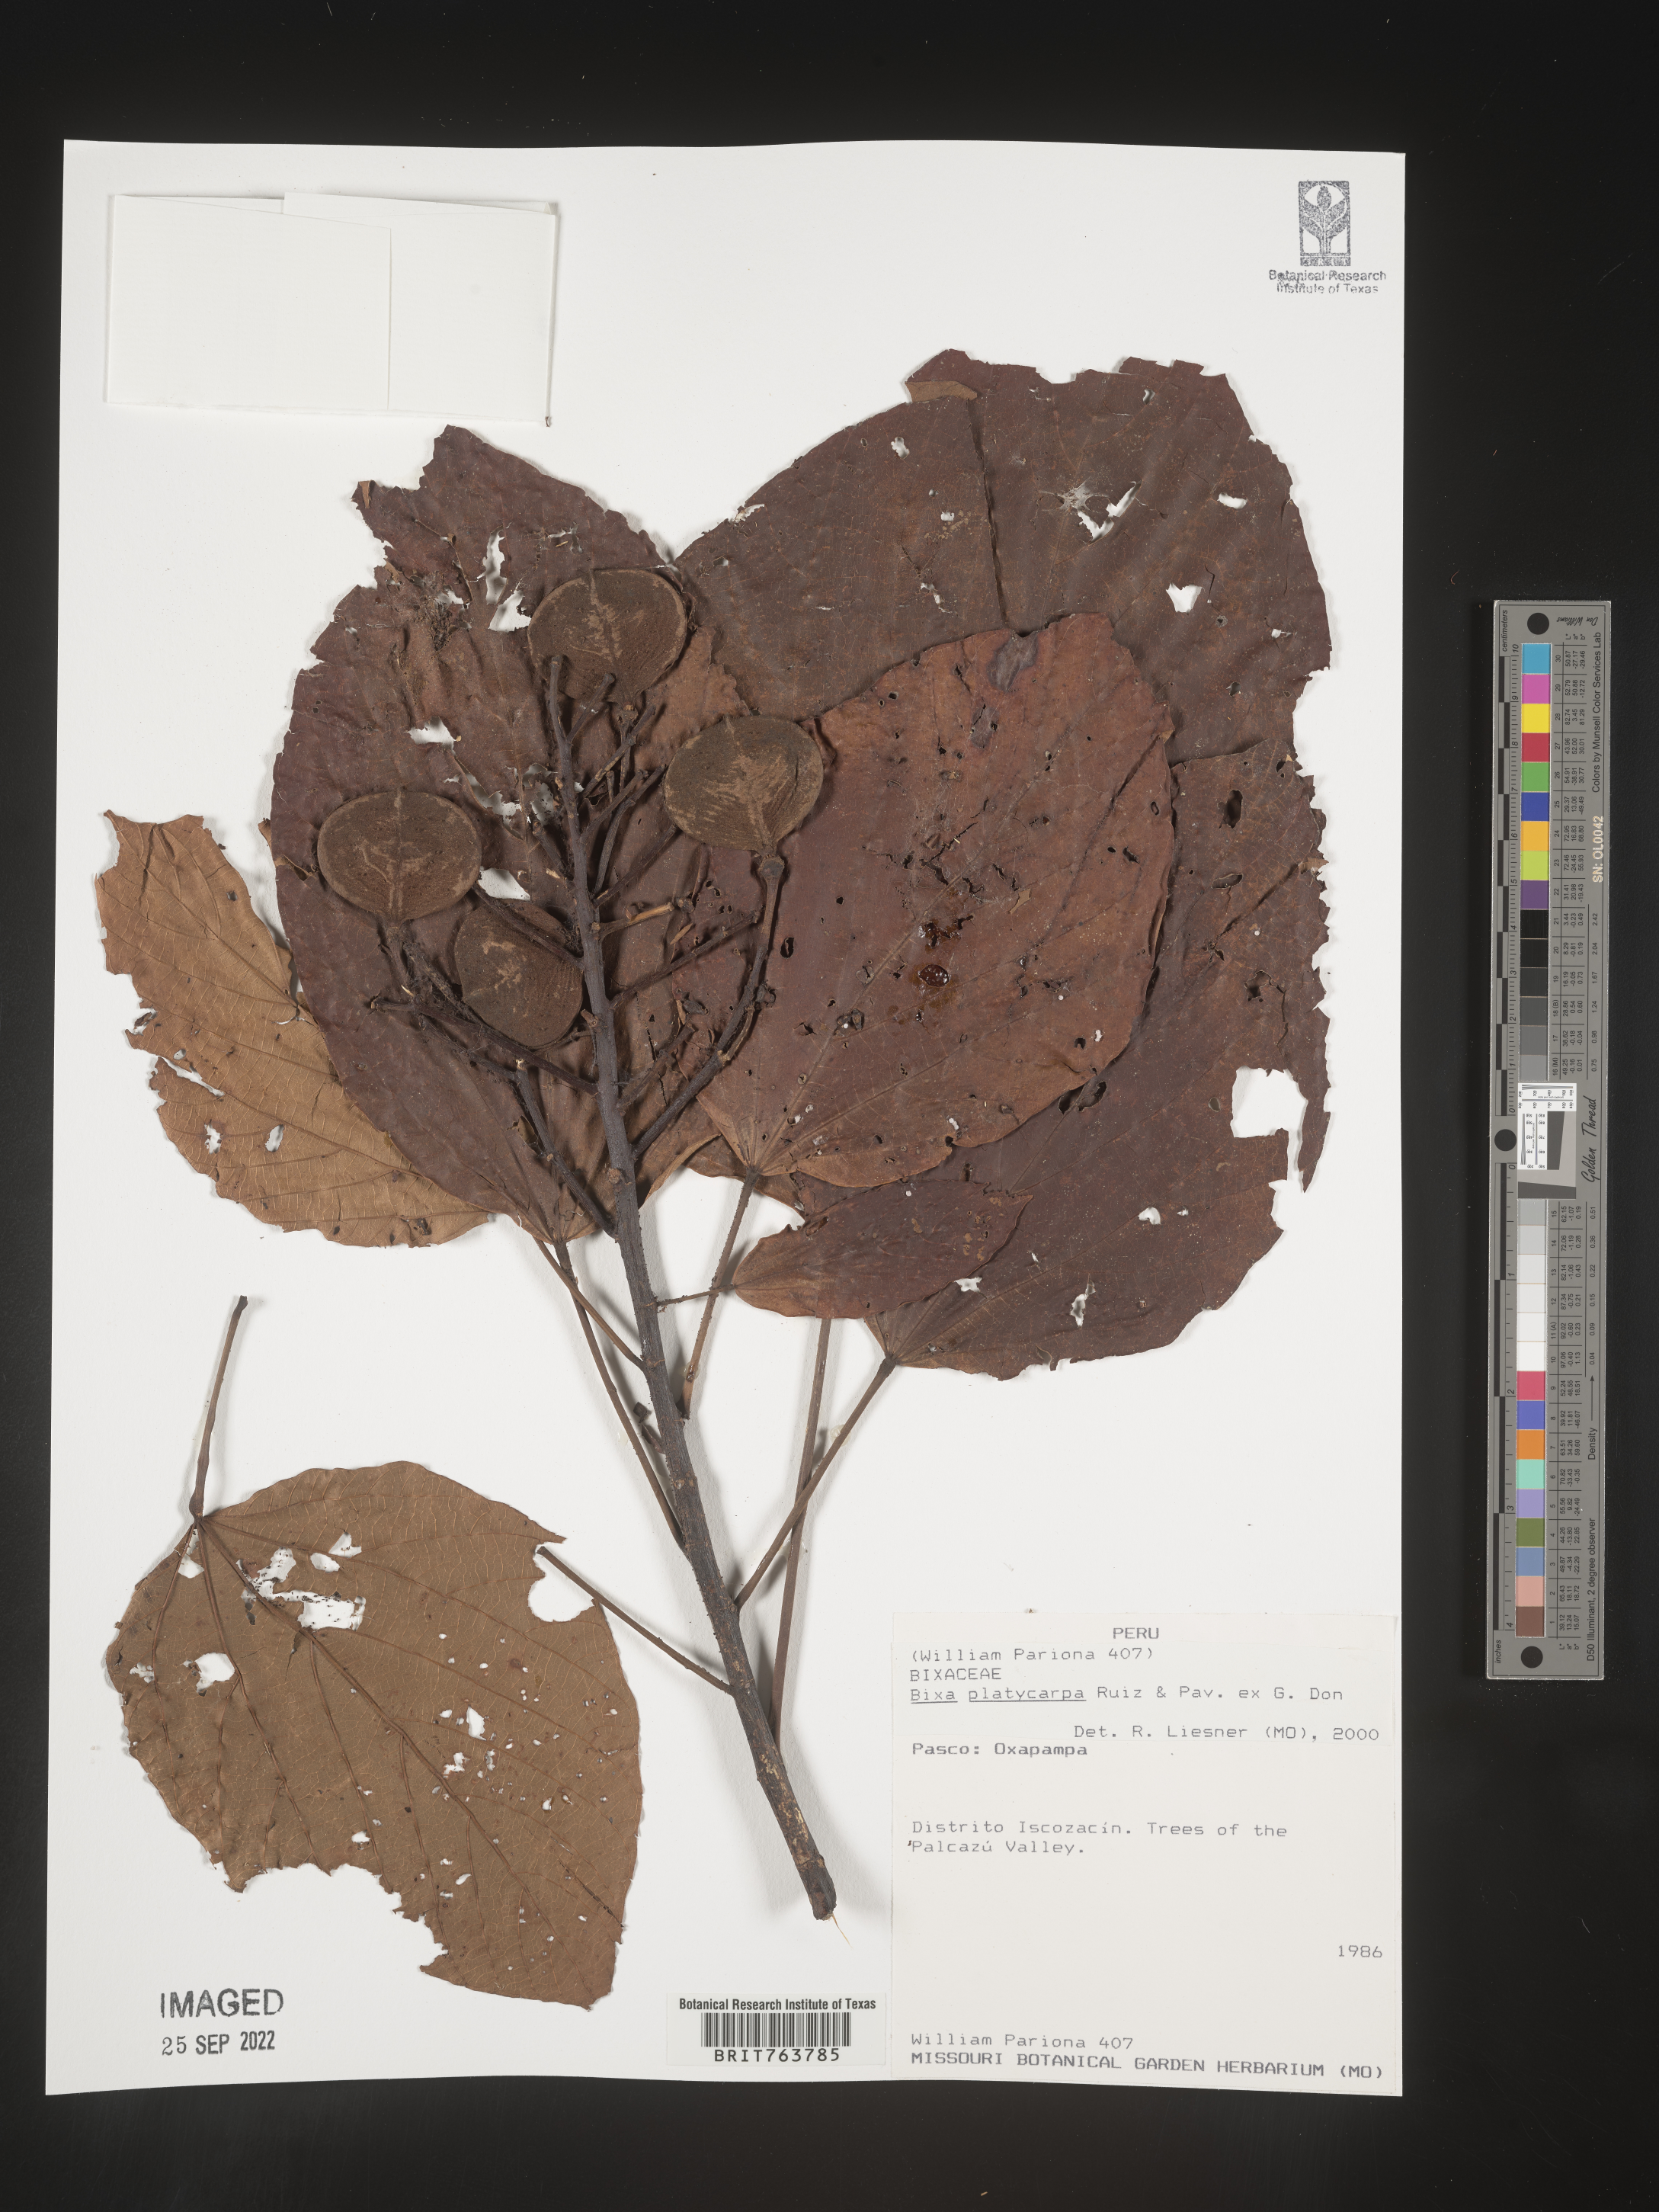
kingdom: Plantae
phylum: Tracheophyta
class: Magnoliopsida
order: Malvales
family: Bixaceae
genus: Bixa
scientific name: Bixa
